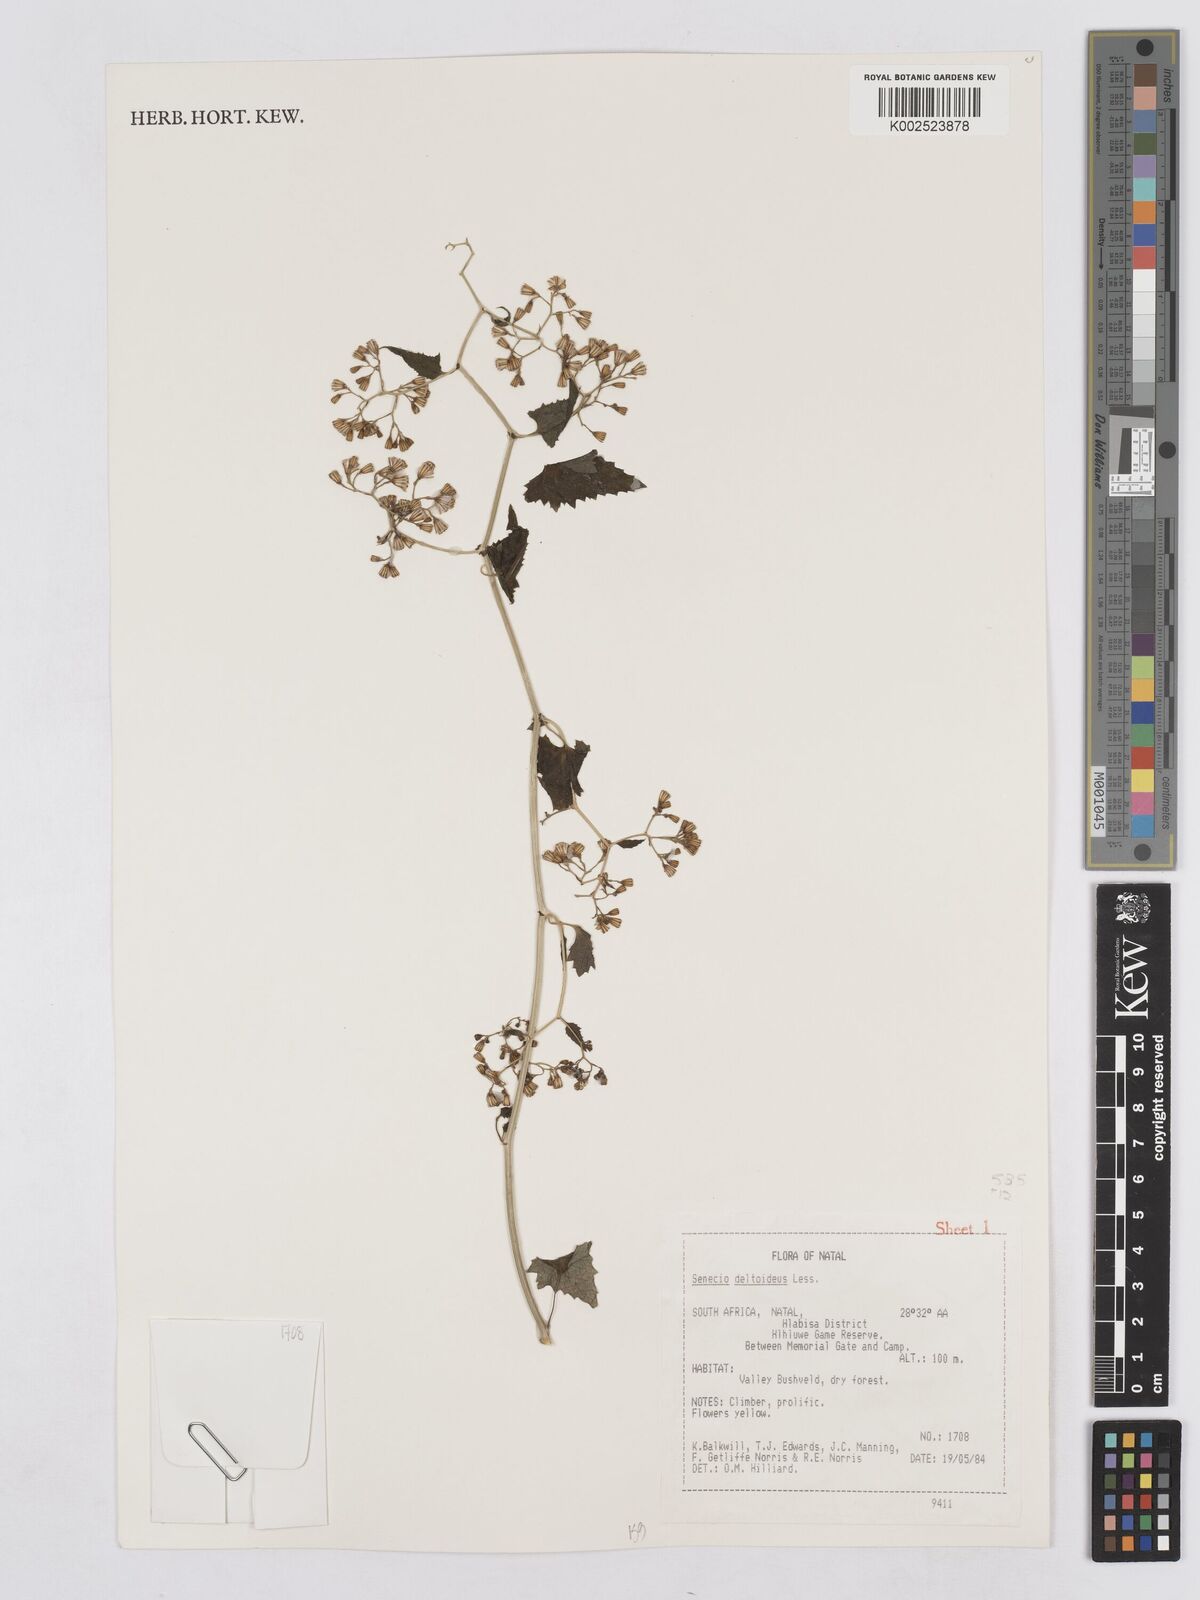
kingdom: Plantae
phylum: Tracheophyta
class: Magnoliopsida
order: Asterales
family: Asteraceae
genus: Senecio
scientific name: Senecio deltoideus
